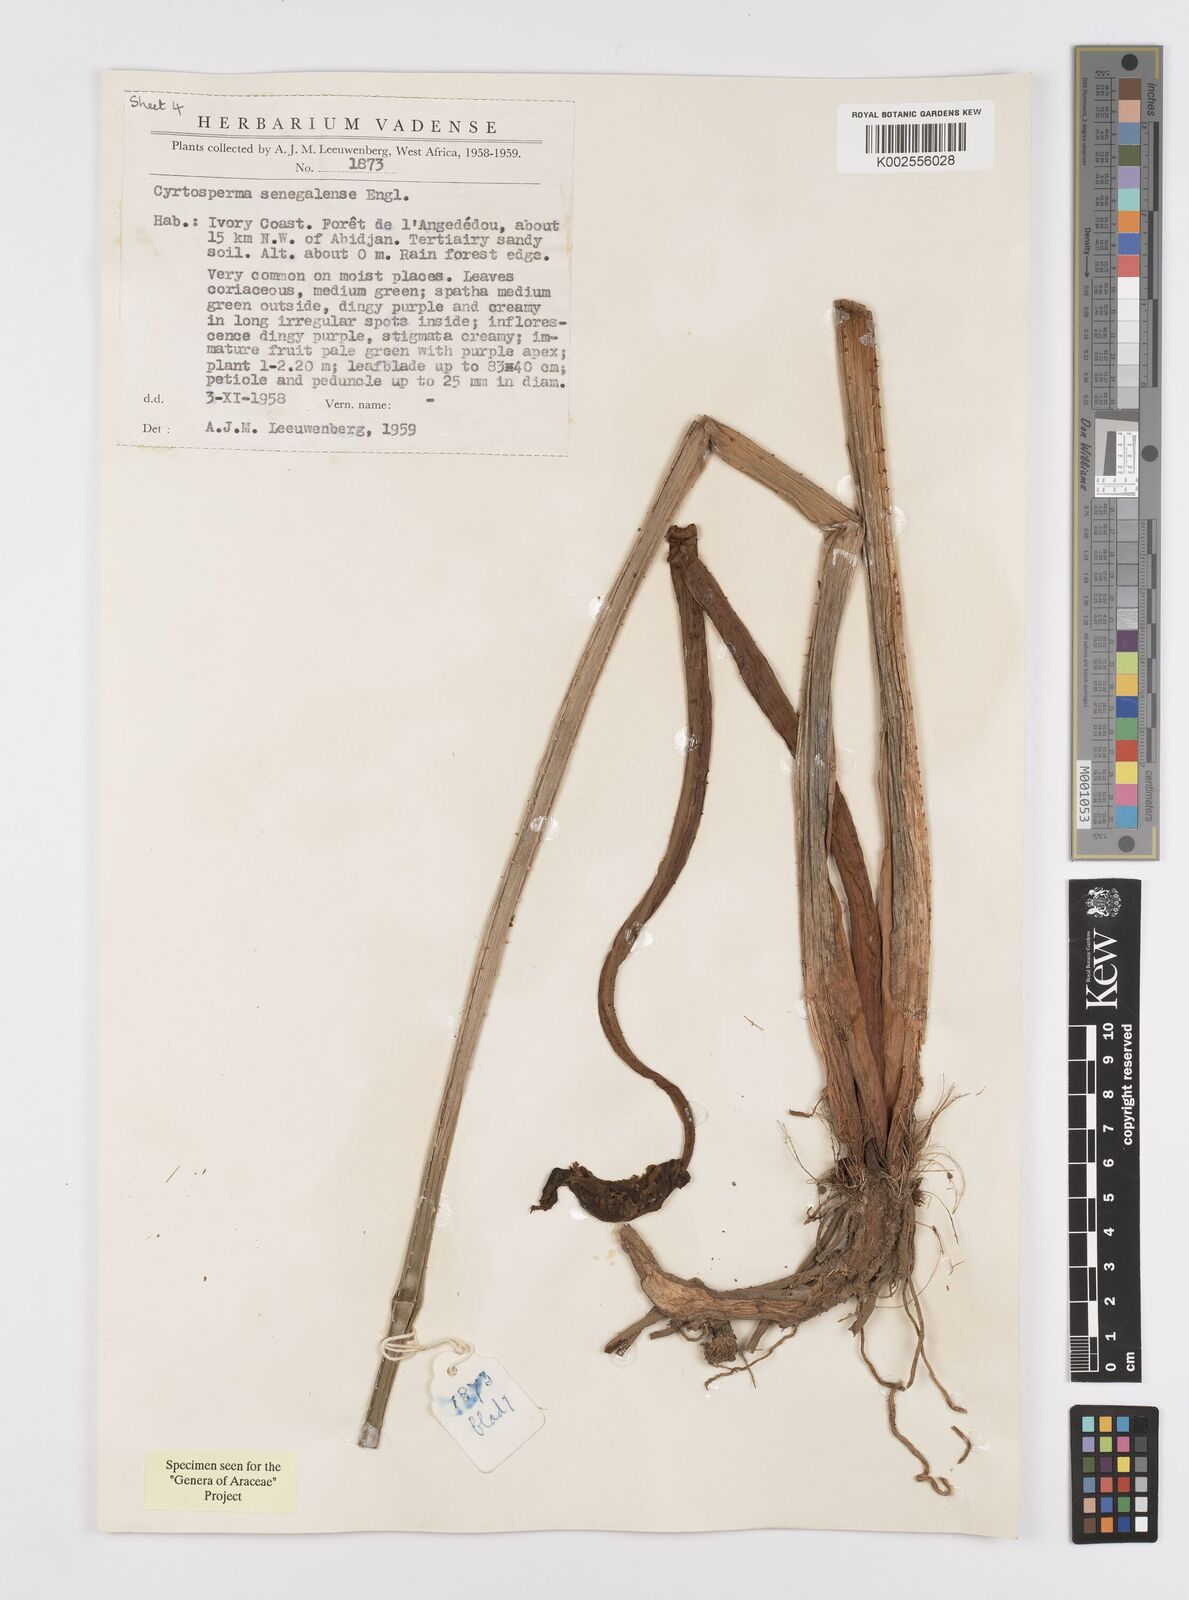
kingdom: Plantae
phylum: Tracheophyta
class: Liliopsida
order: Alismatales
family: Araceae
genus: Lasimorpha
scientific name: Lasimorpha senegalensis
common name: Swamp arum
